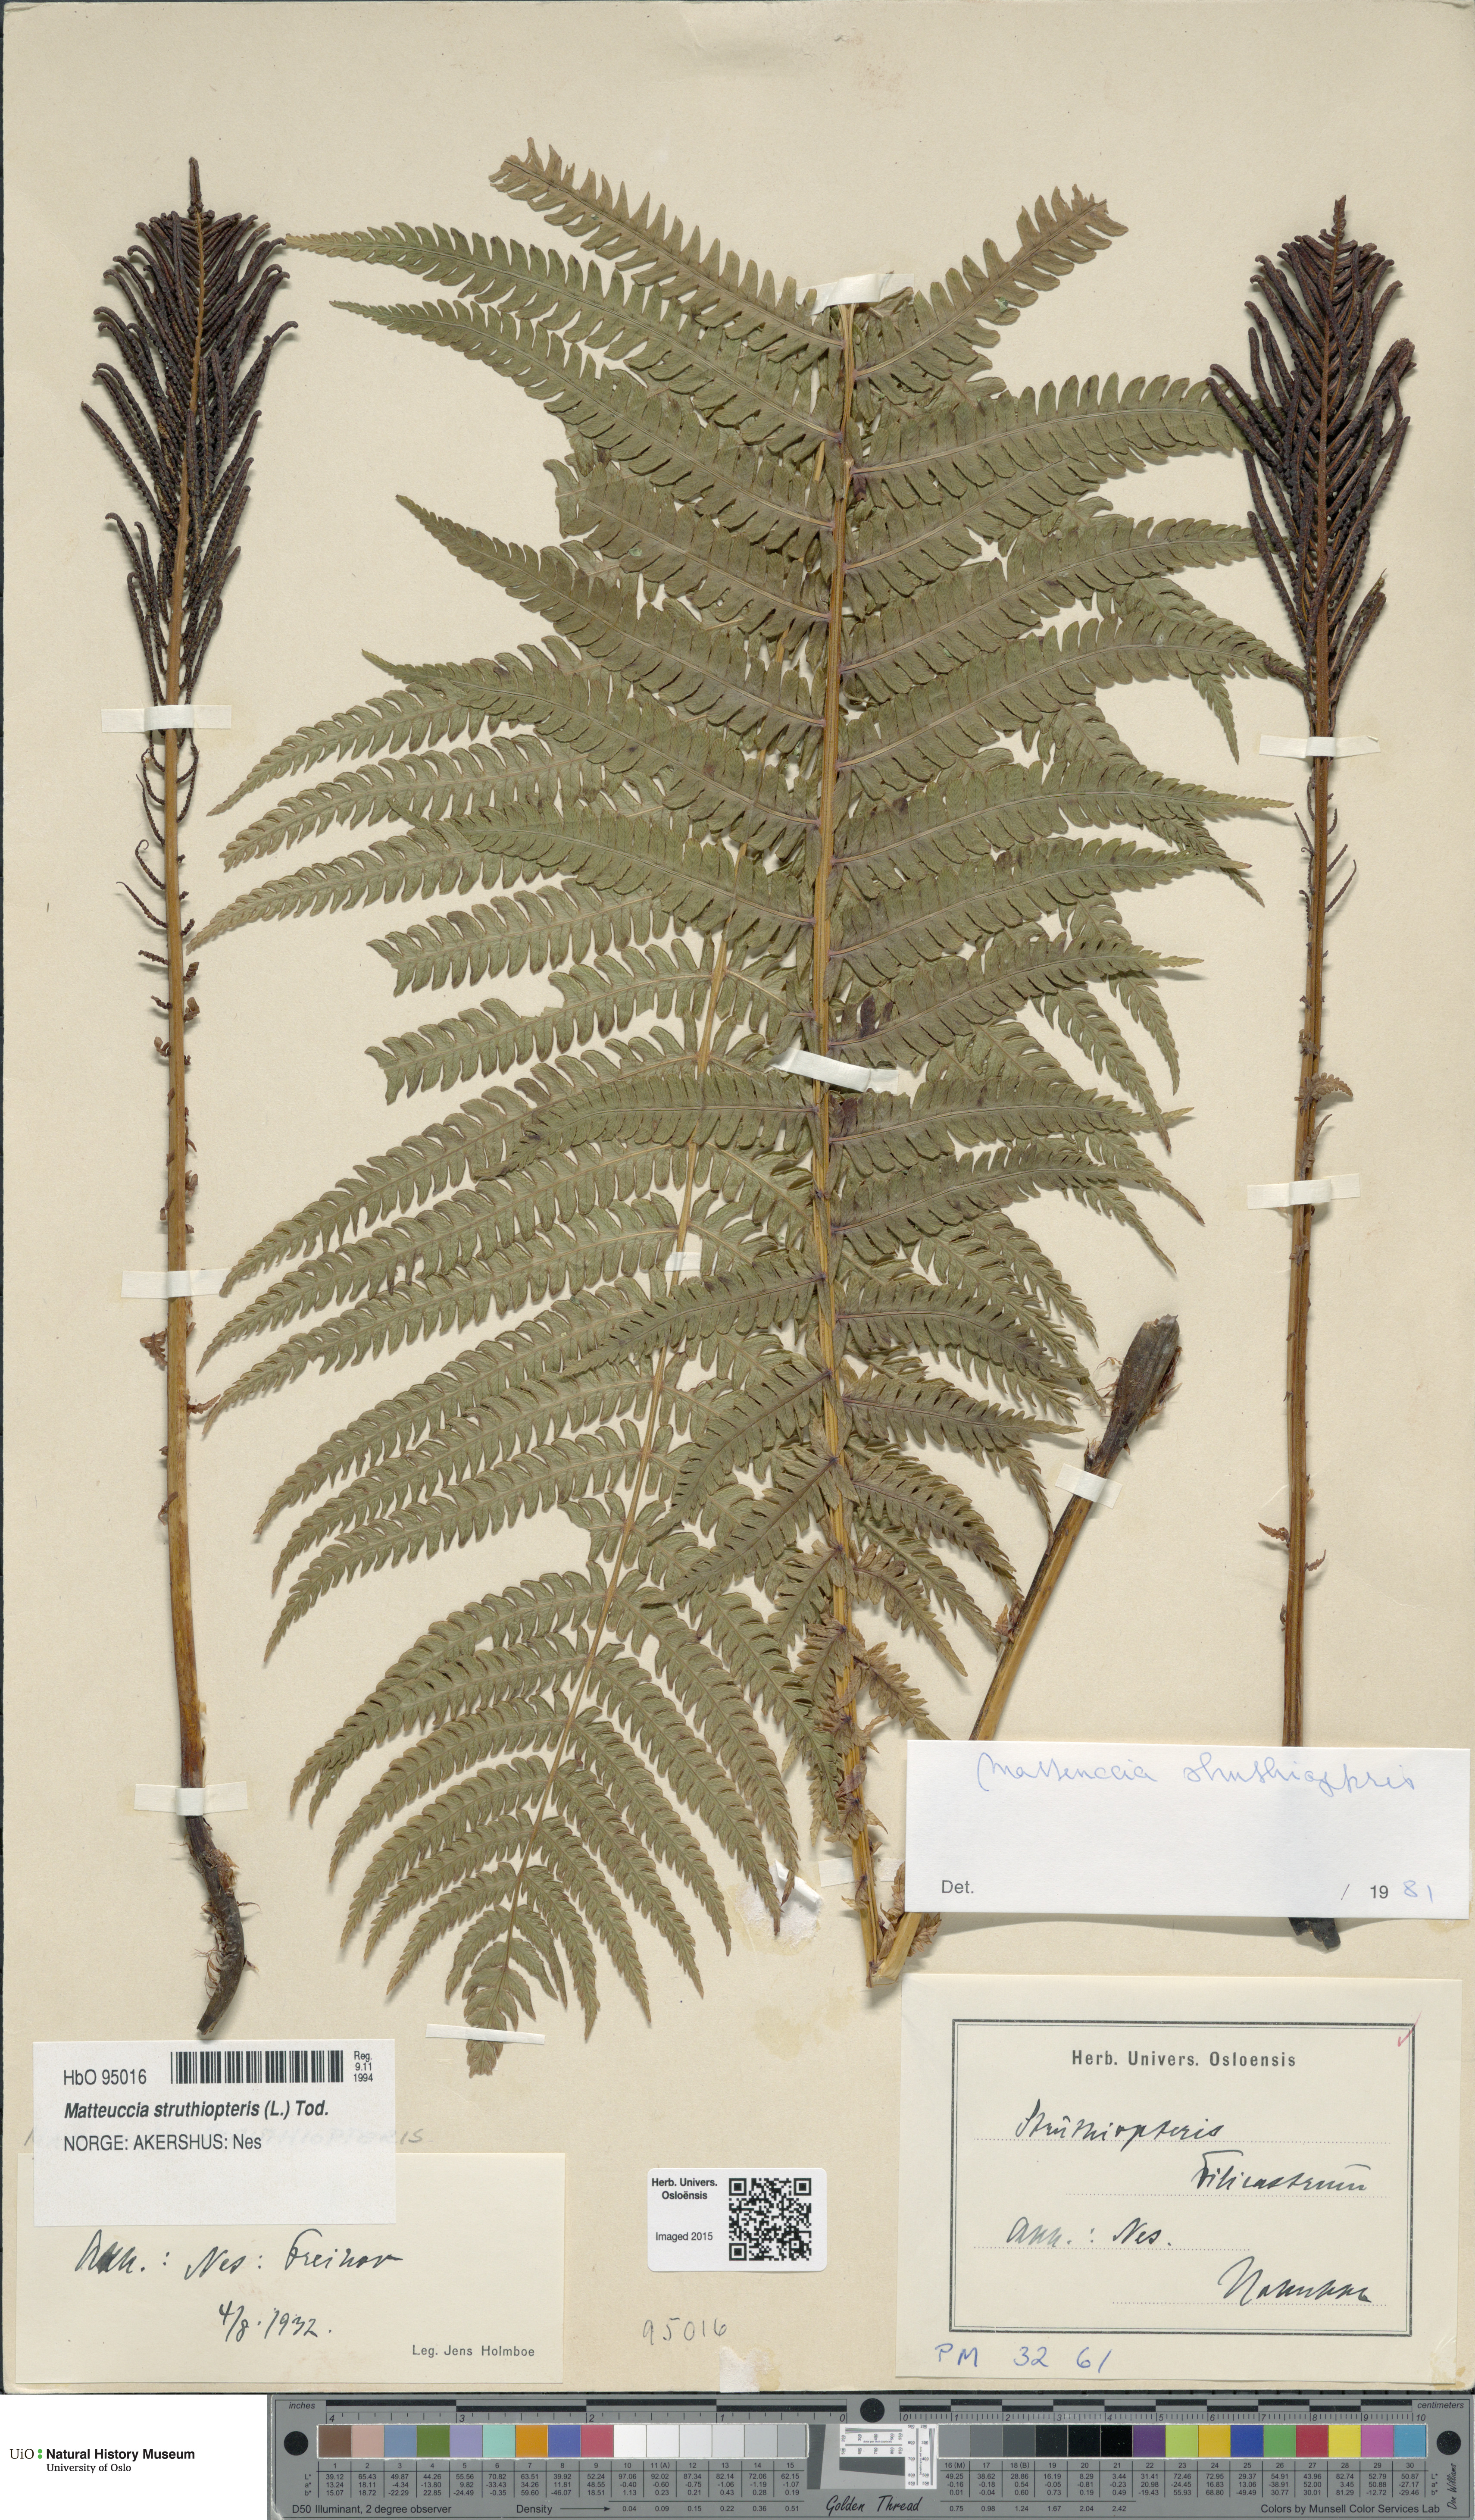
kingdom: Plantae
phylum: Tracheophyta
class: Polypodiopsida
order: Polypodiales
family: Onocleaceae
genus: Matteuccia
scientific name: Matteuccia struthiopteris
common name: Ostrich fern
